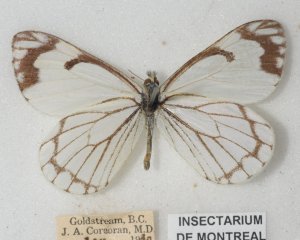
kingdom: Animalia
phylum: Arthropoda
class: Insecta
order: Lepidoptera
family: Pieridae
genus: Neophasia
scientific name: Neophasia menapia
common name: Pine White
